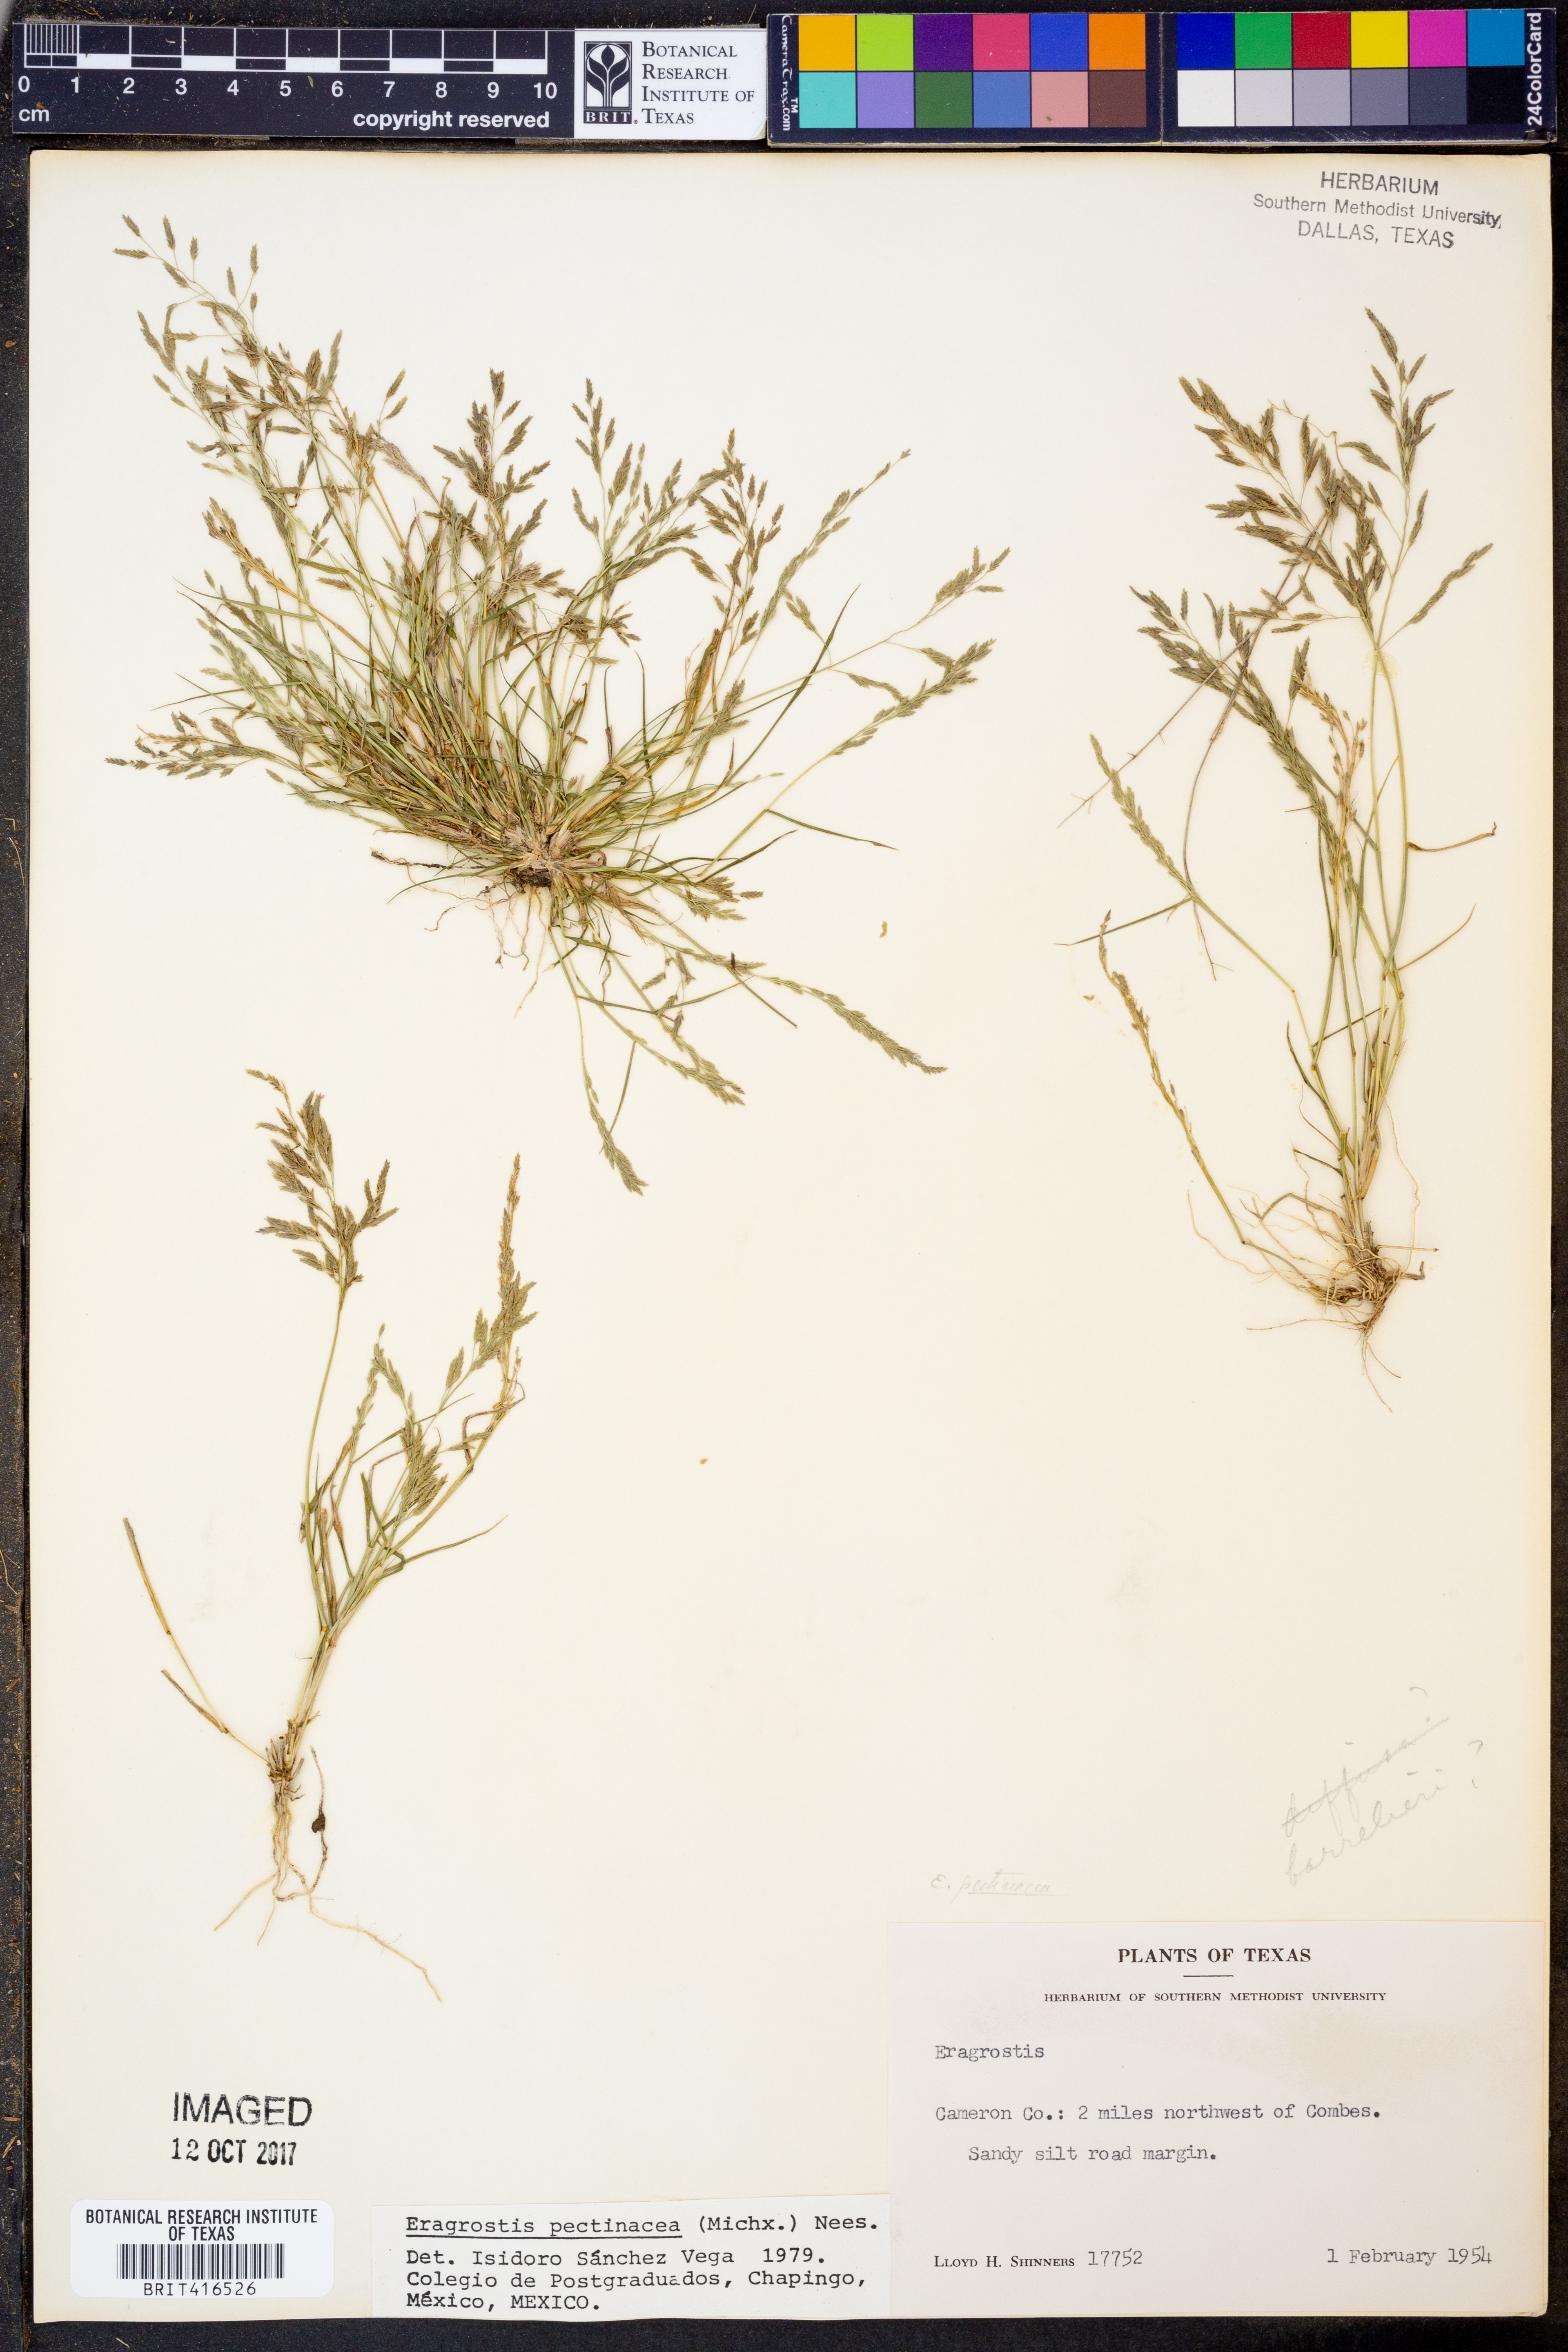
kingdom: Plantae
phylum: Tracheophyta
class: Liliopsida
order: Poales
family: Poaceae
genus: Eragrostis
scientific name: Eragrostis pectinacea
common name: Tufted lovegrass
